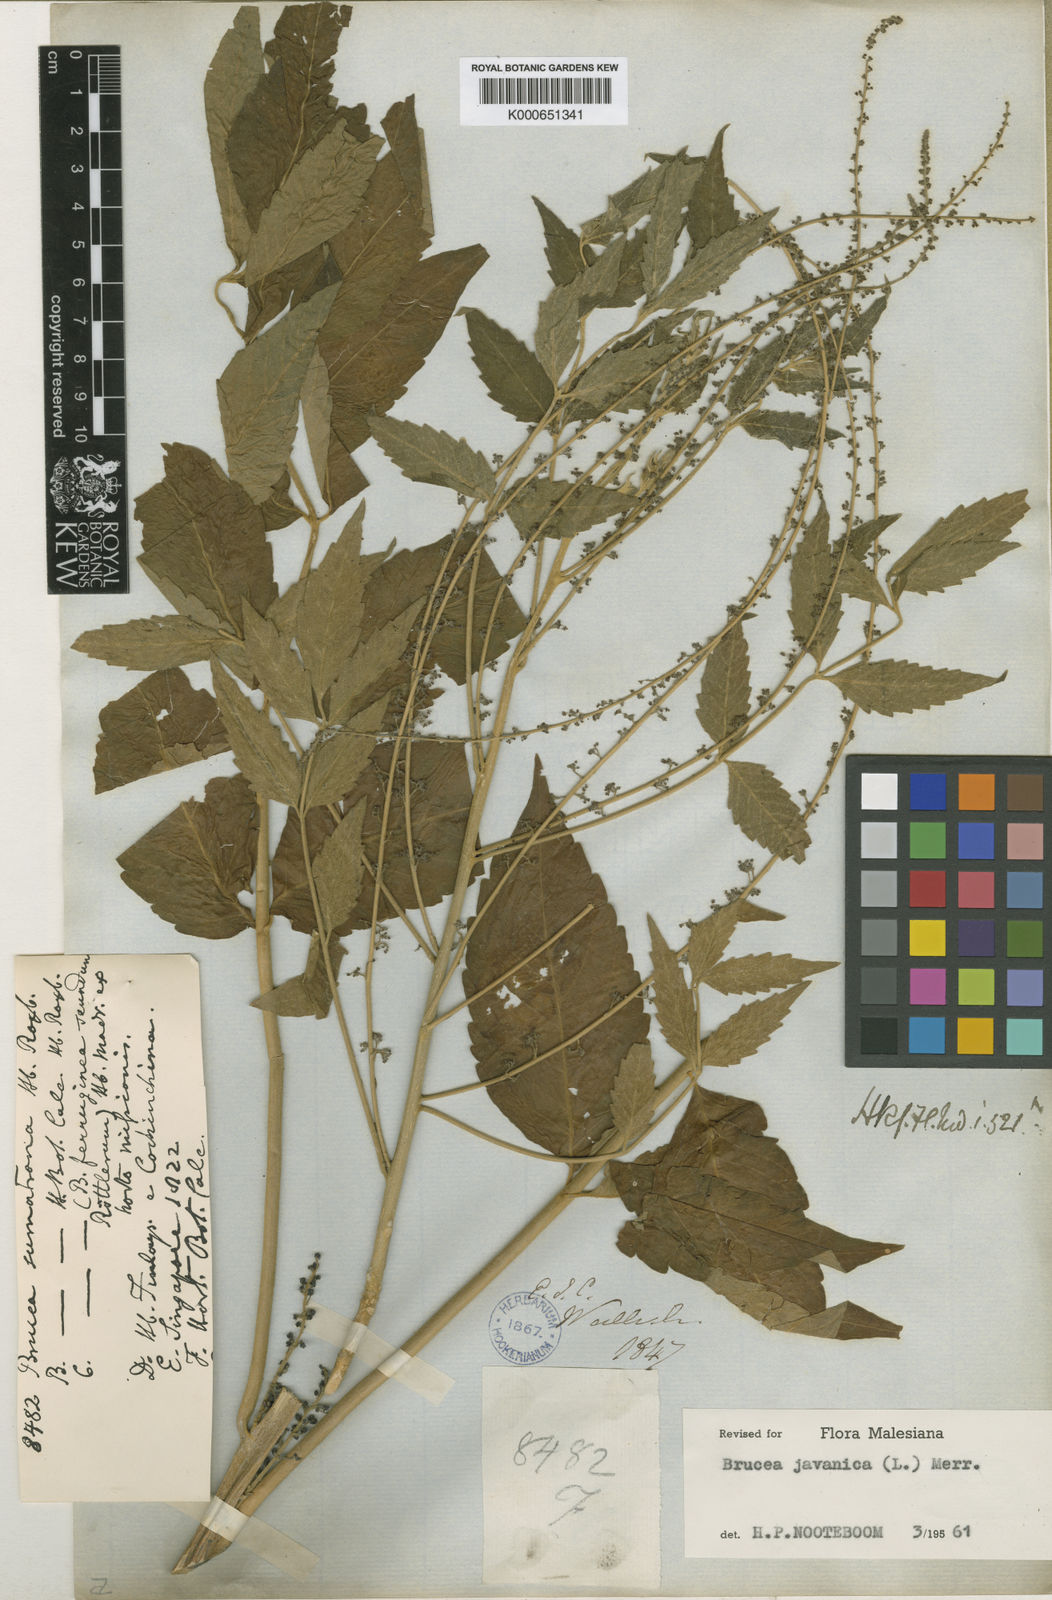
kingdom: Plantae
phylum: Tracheophyta
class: Magnoliopsida
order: Sapindales
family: Simaroubaceae
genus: Brucea
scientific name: Brucea javanica
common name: Macassar kernels
